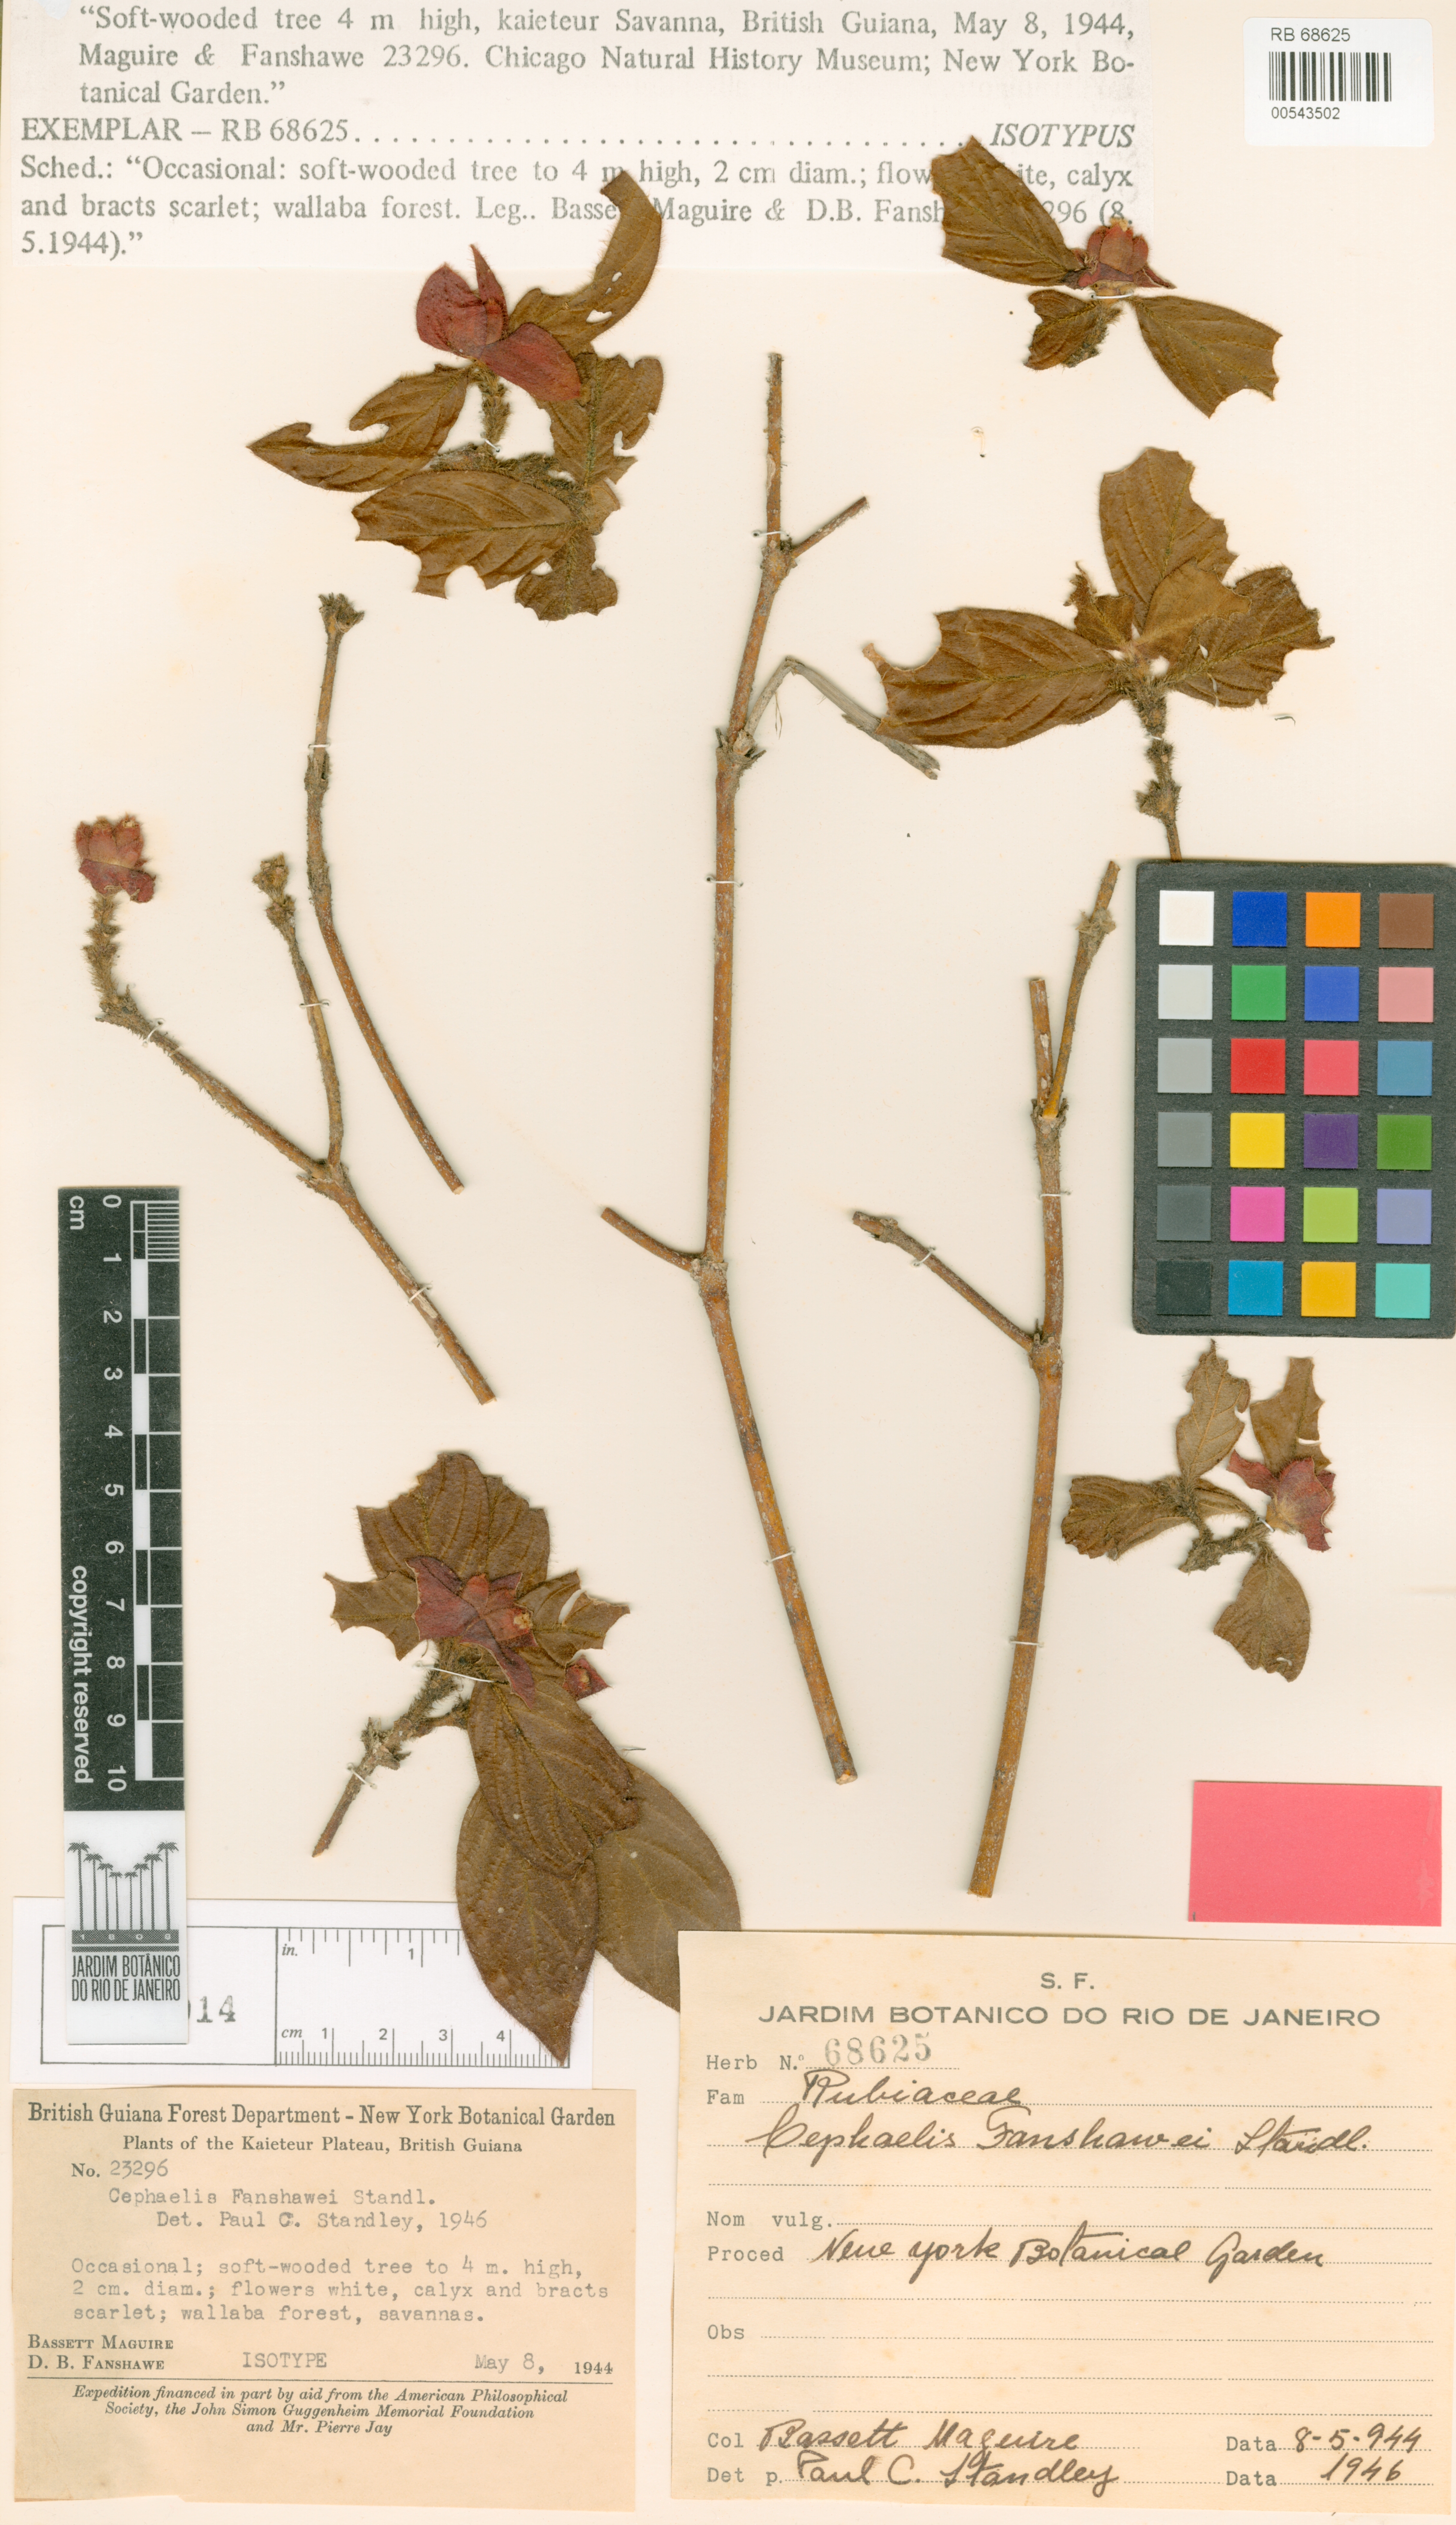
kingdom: Plantae
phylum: Tracheophyta
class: Magnoliopsida
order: Gentianales
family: Rubiaceae
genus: Palicourea
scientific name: Palicourea fanshawei
